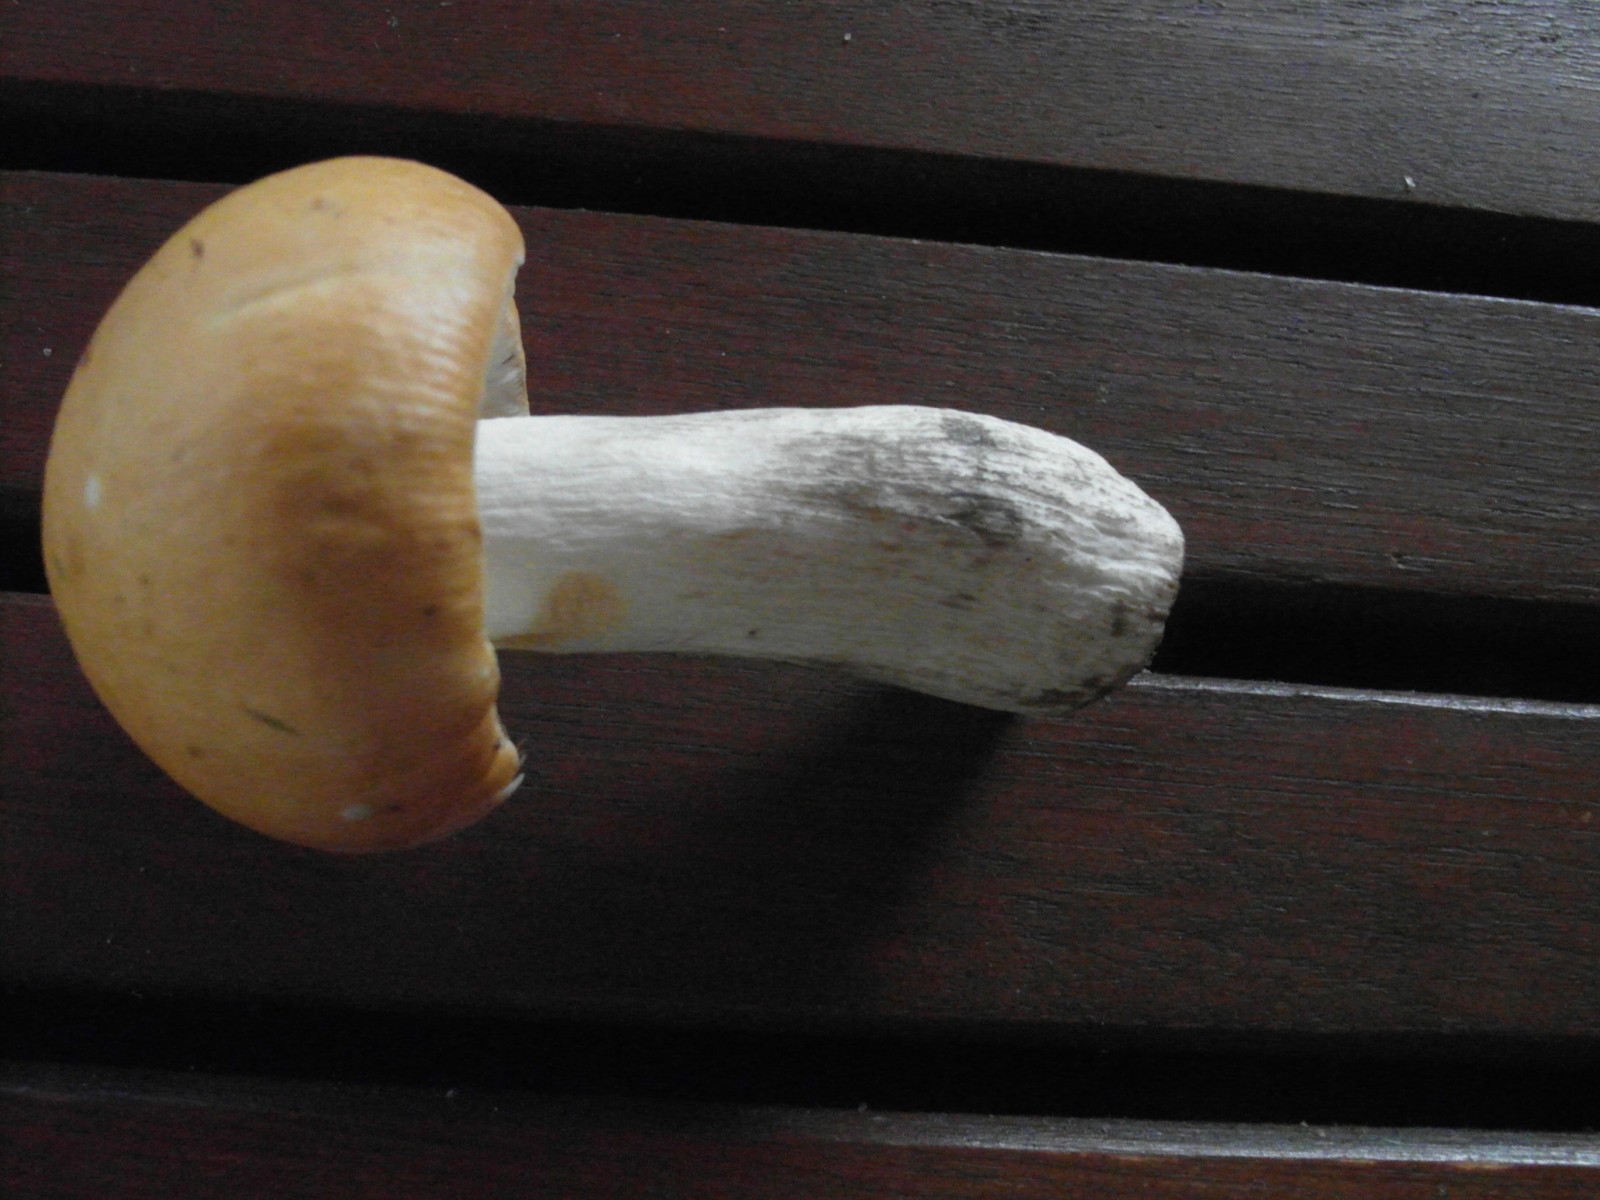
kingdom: Fungi
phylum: Basidiomycota
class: Agaricomycetes
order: Russulales
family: Russulaceae
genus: Russula
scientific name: Russula decolorans
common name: afblegende skørhat
